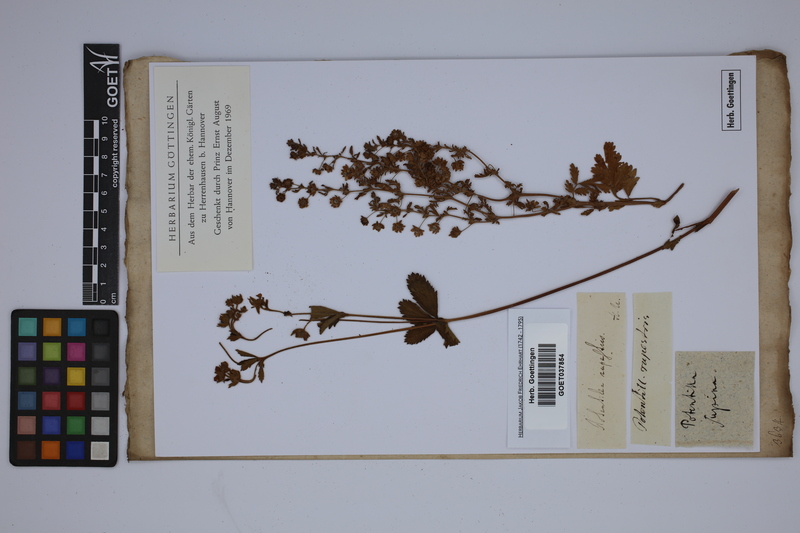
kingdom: Plantae
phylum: Tracheophyta
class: Magnoliopsida
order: Rosales
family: Rosaceae
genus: Drymocallis
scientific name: Drymocallis rupestris
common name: Rock cinquefoil
